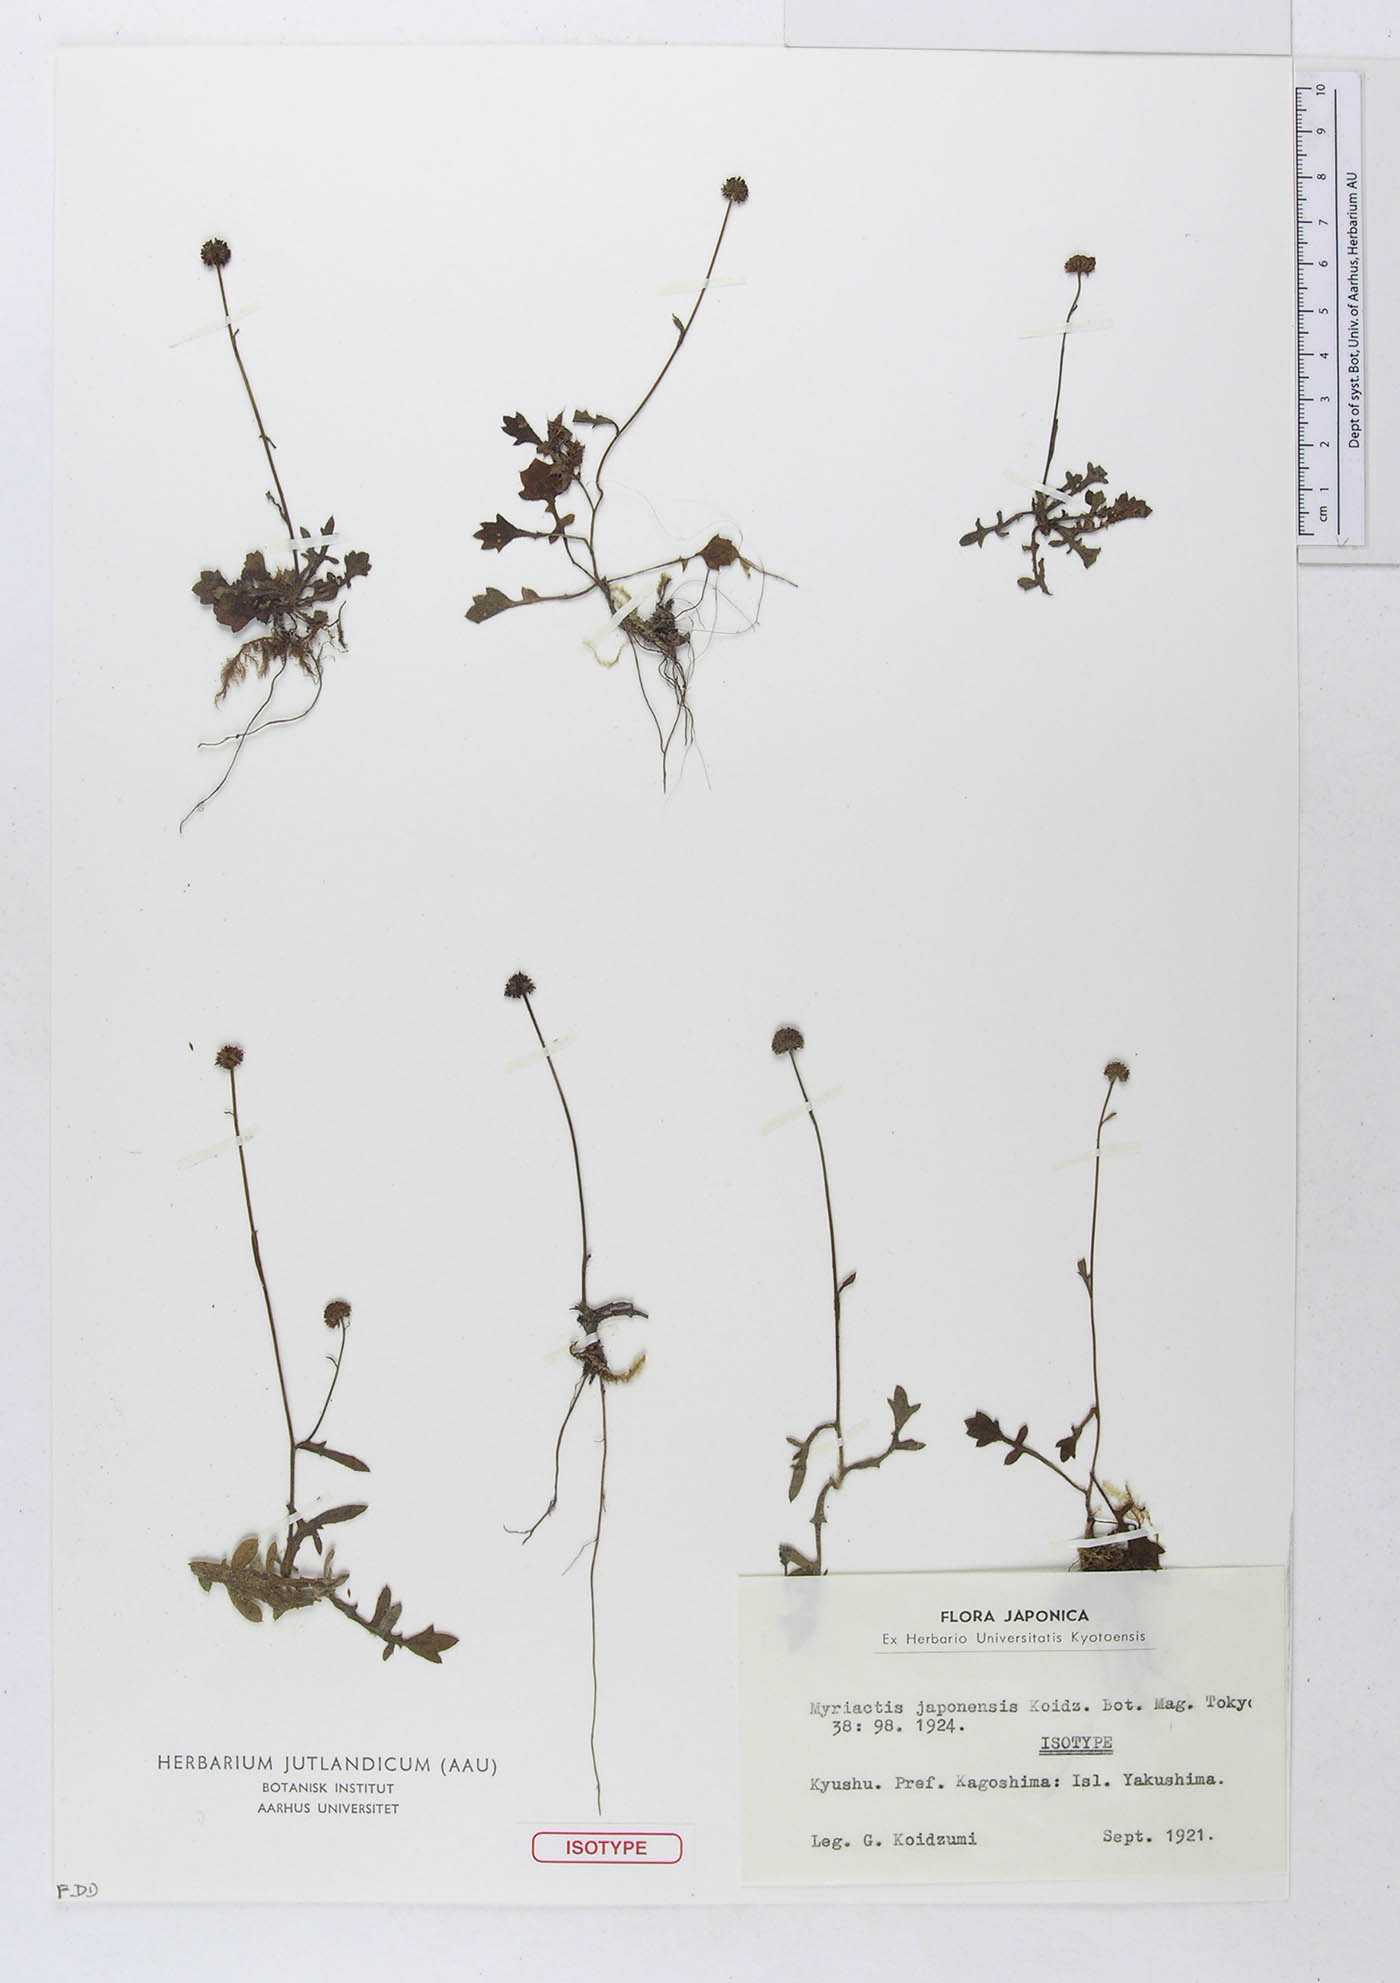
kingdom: Plantae
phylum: Tracheophyta
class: Magnoliopsida
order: Asterales
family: Asteraceae
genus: Myriactis
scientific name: Myriactis japonensis
